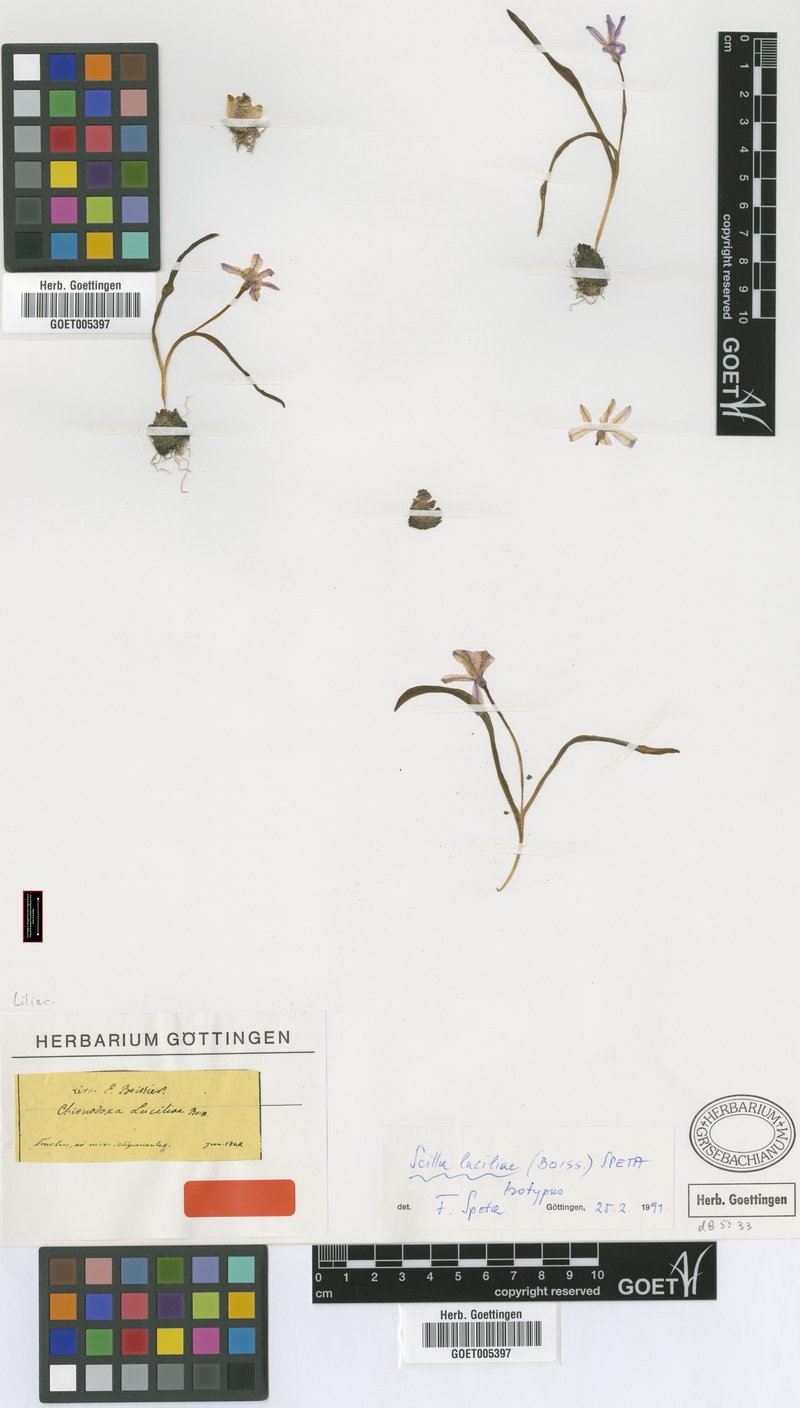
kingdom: Plantae
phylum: Tracheophyta
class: Liliopsida
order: Asparagales
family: Asparagaceae
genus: Scilla
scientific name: Scilla luciliae
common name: Boissier's glory-of-the-snow
